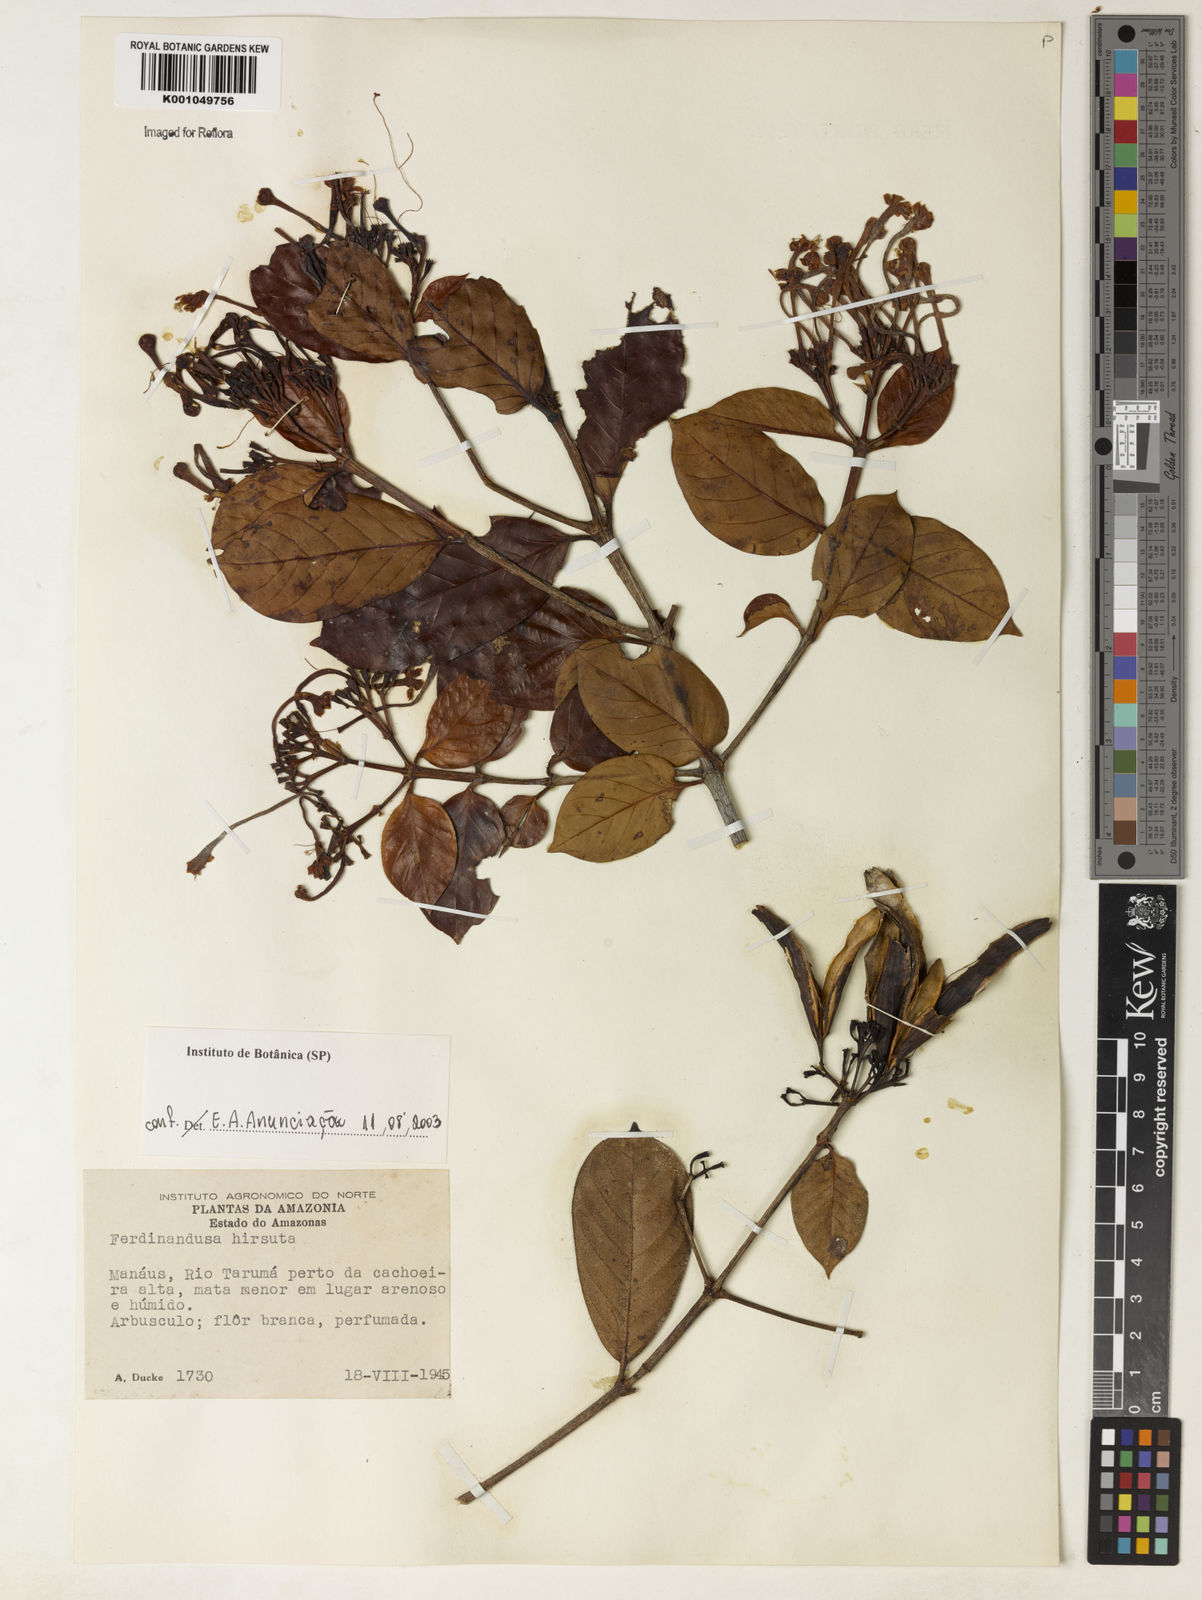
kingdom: Plantae
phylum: Tracheophyta
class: Magnoliopsida
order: Gentianales
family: Rubiaceae
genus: Ferdinandusa
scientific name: Ferdinandusa hirsuta
